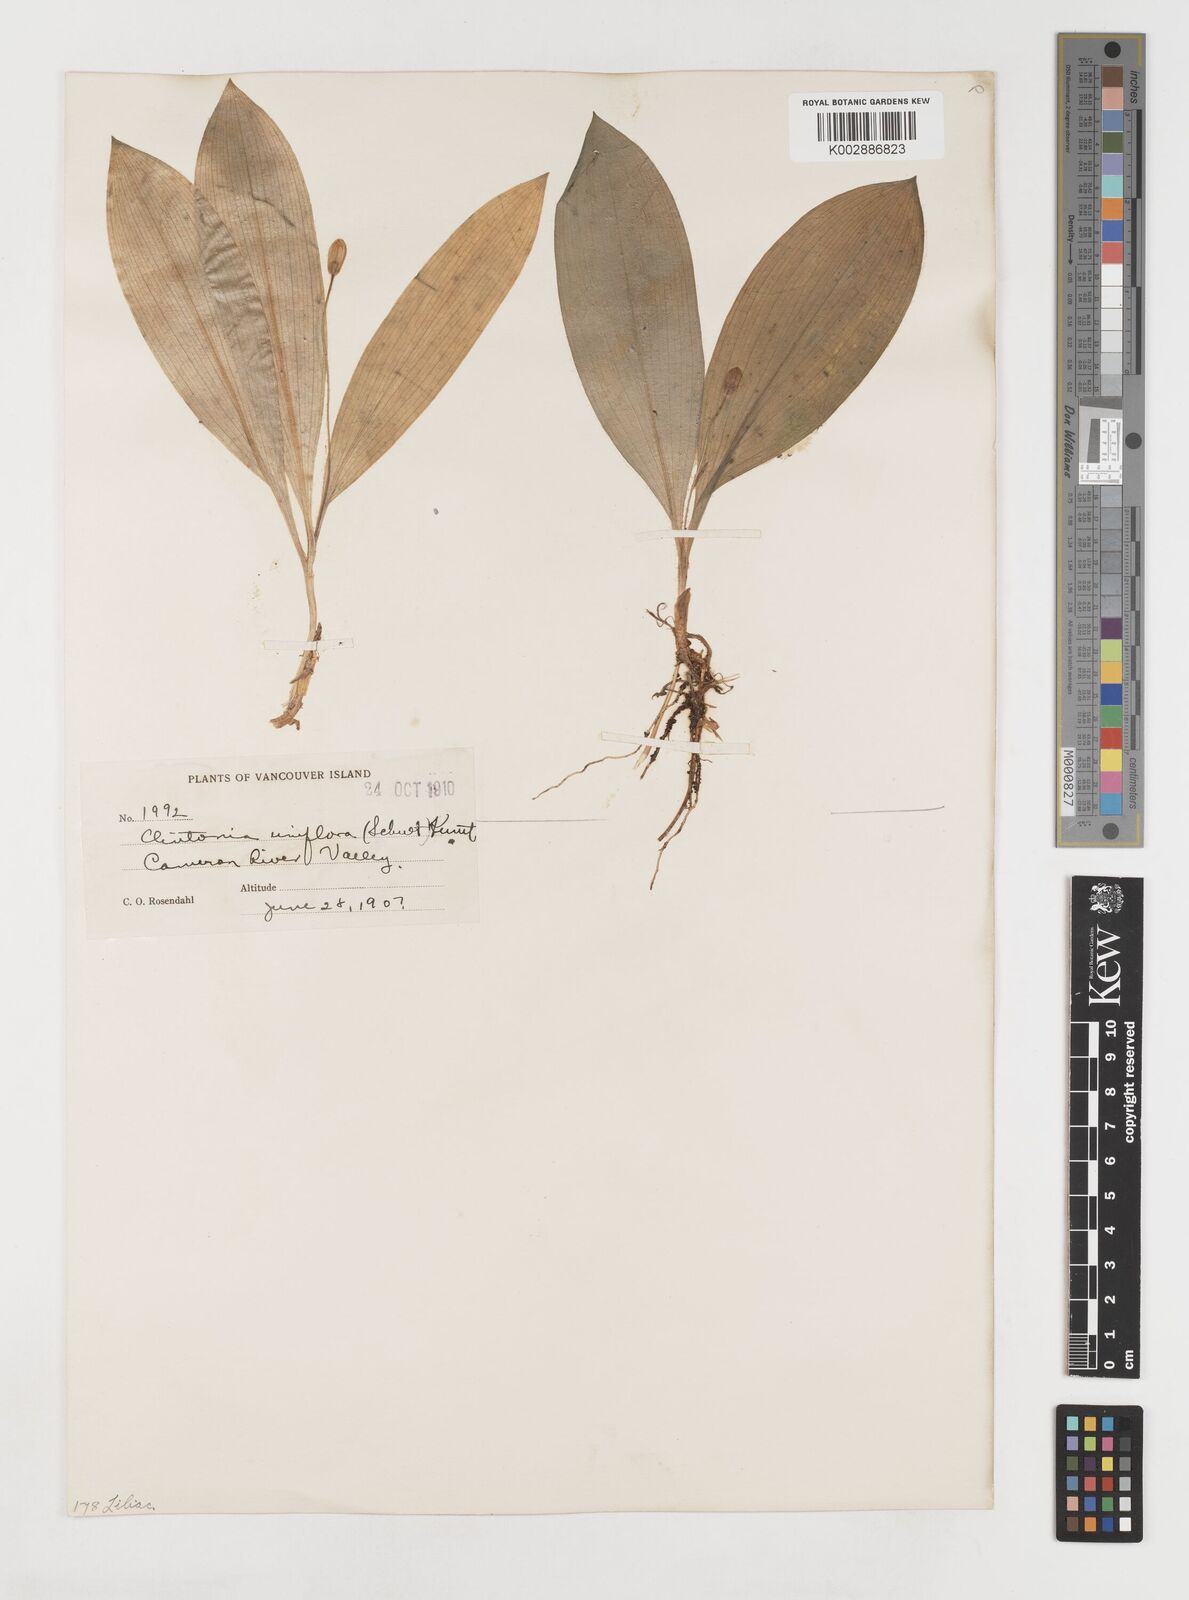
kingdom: Plantae
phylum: Tracheophyta
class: Liliopsida
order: Liliales
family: Liliaceae
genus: Clintonia
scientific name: Clintonia uniflora
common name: Queen's cup
